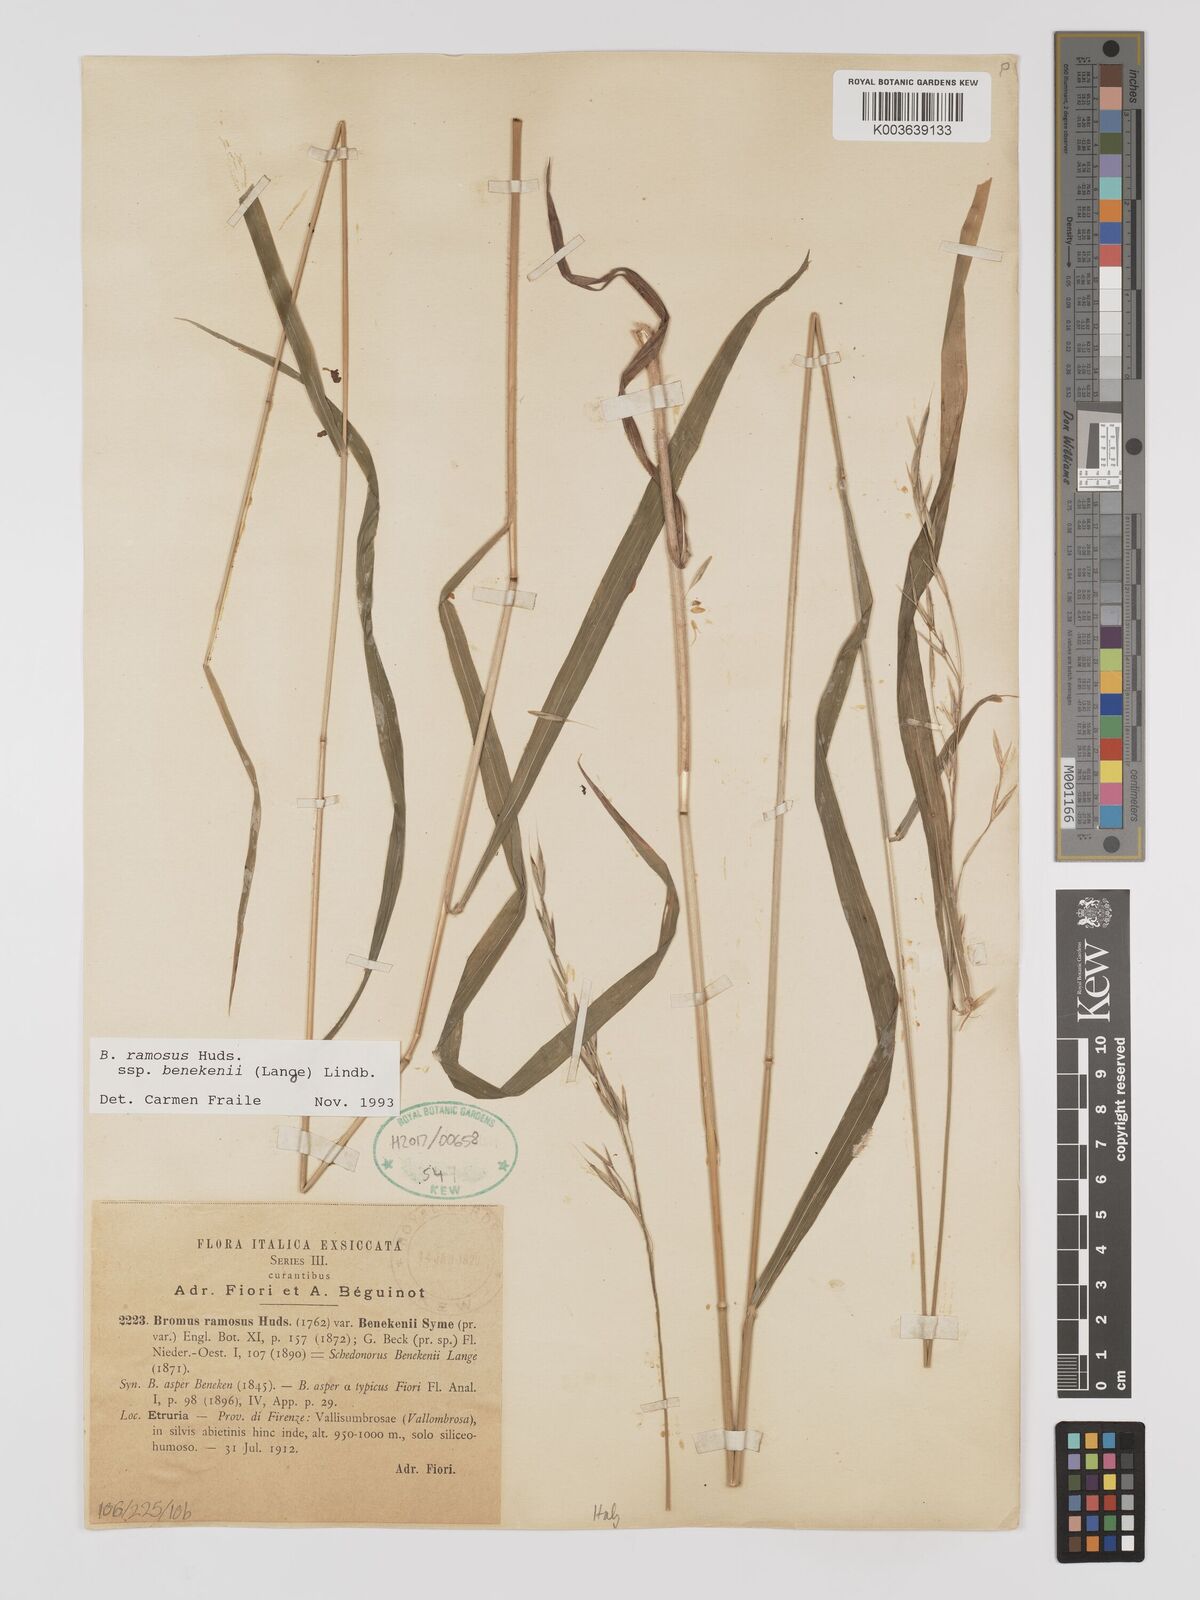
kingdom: Plantae
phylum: Tracheophyta
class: Liliopsida
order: Poales
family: Poaceae
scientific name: Poaceae
